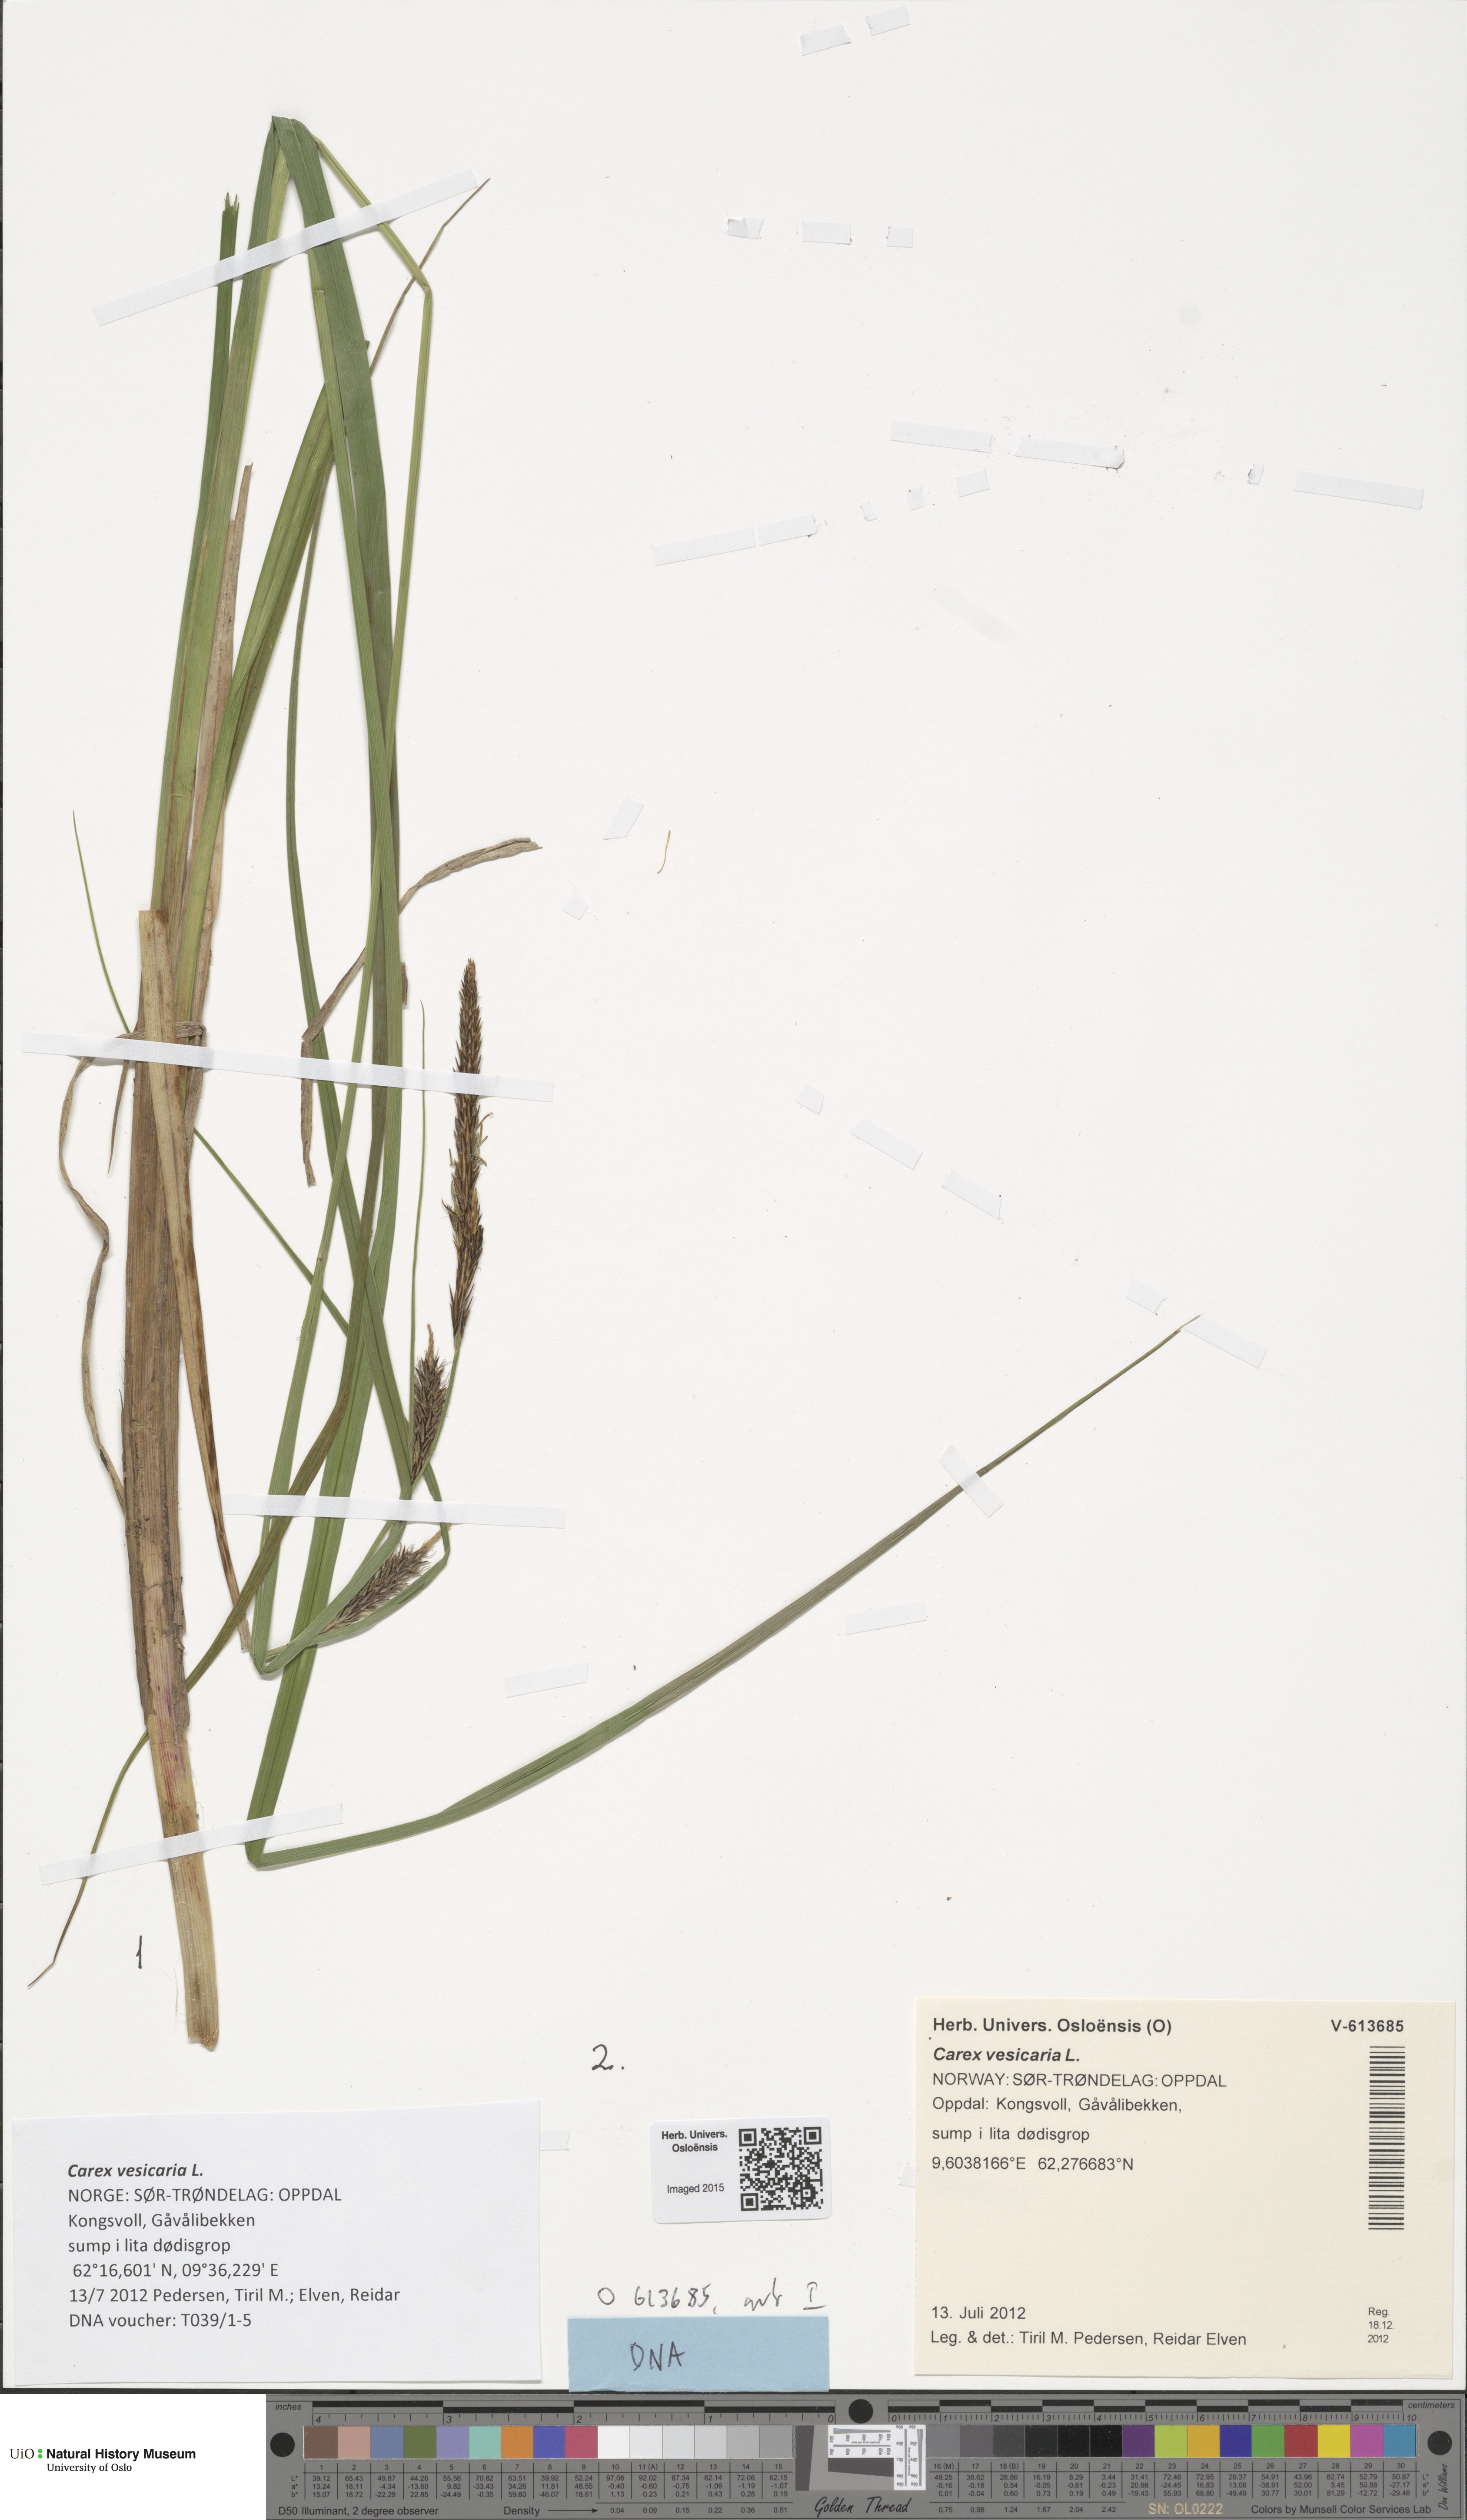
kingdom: Plantae
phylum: Tracheophyta
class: Liliopsida
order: Poales
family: Cyperaceae
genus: Carex
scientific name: Carex vesicaria
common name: Bladder-sedge
